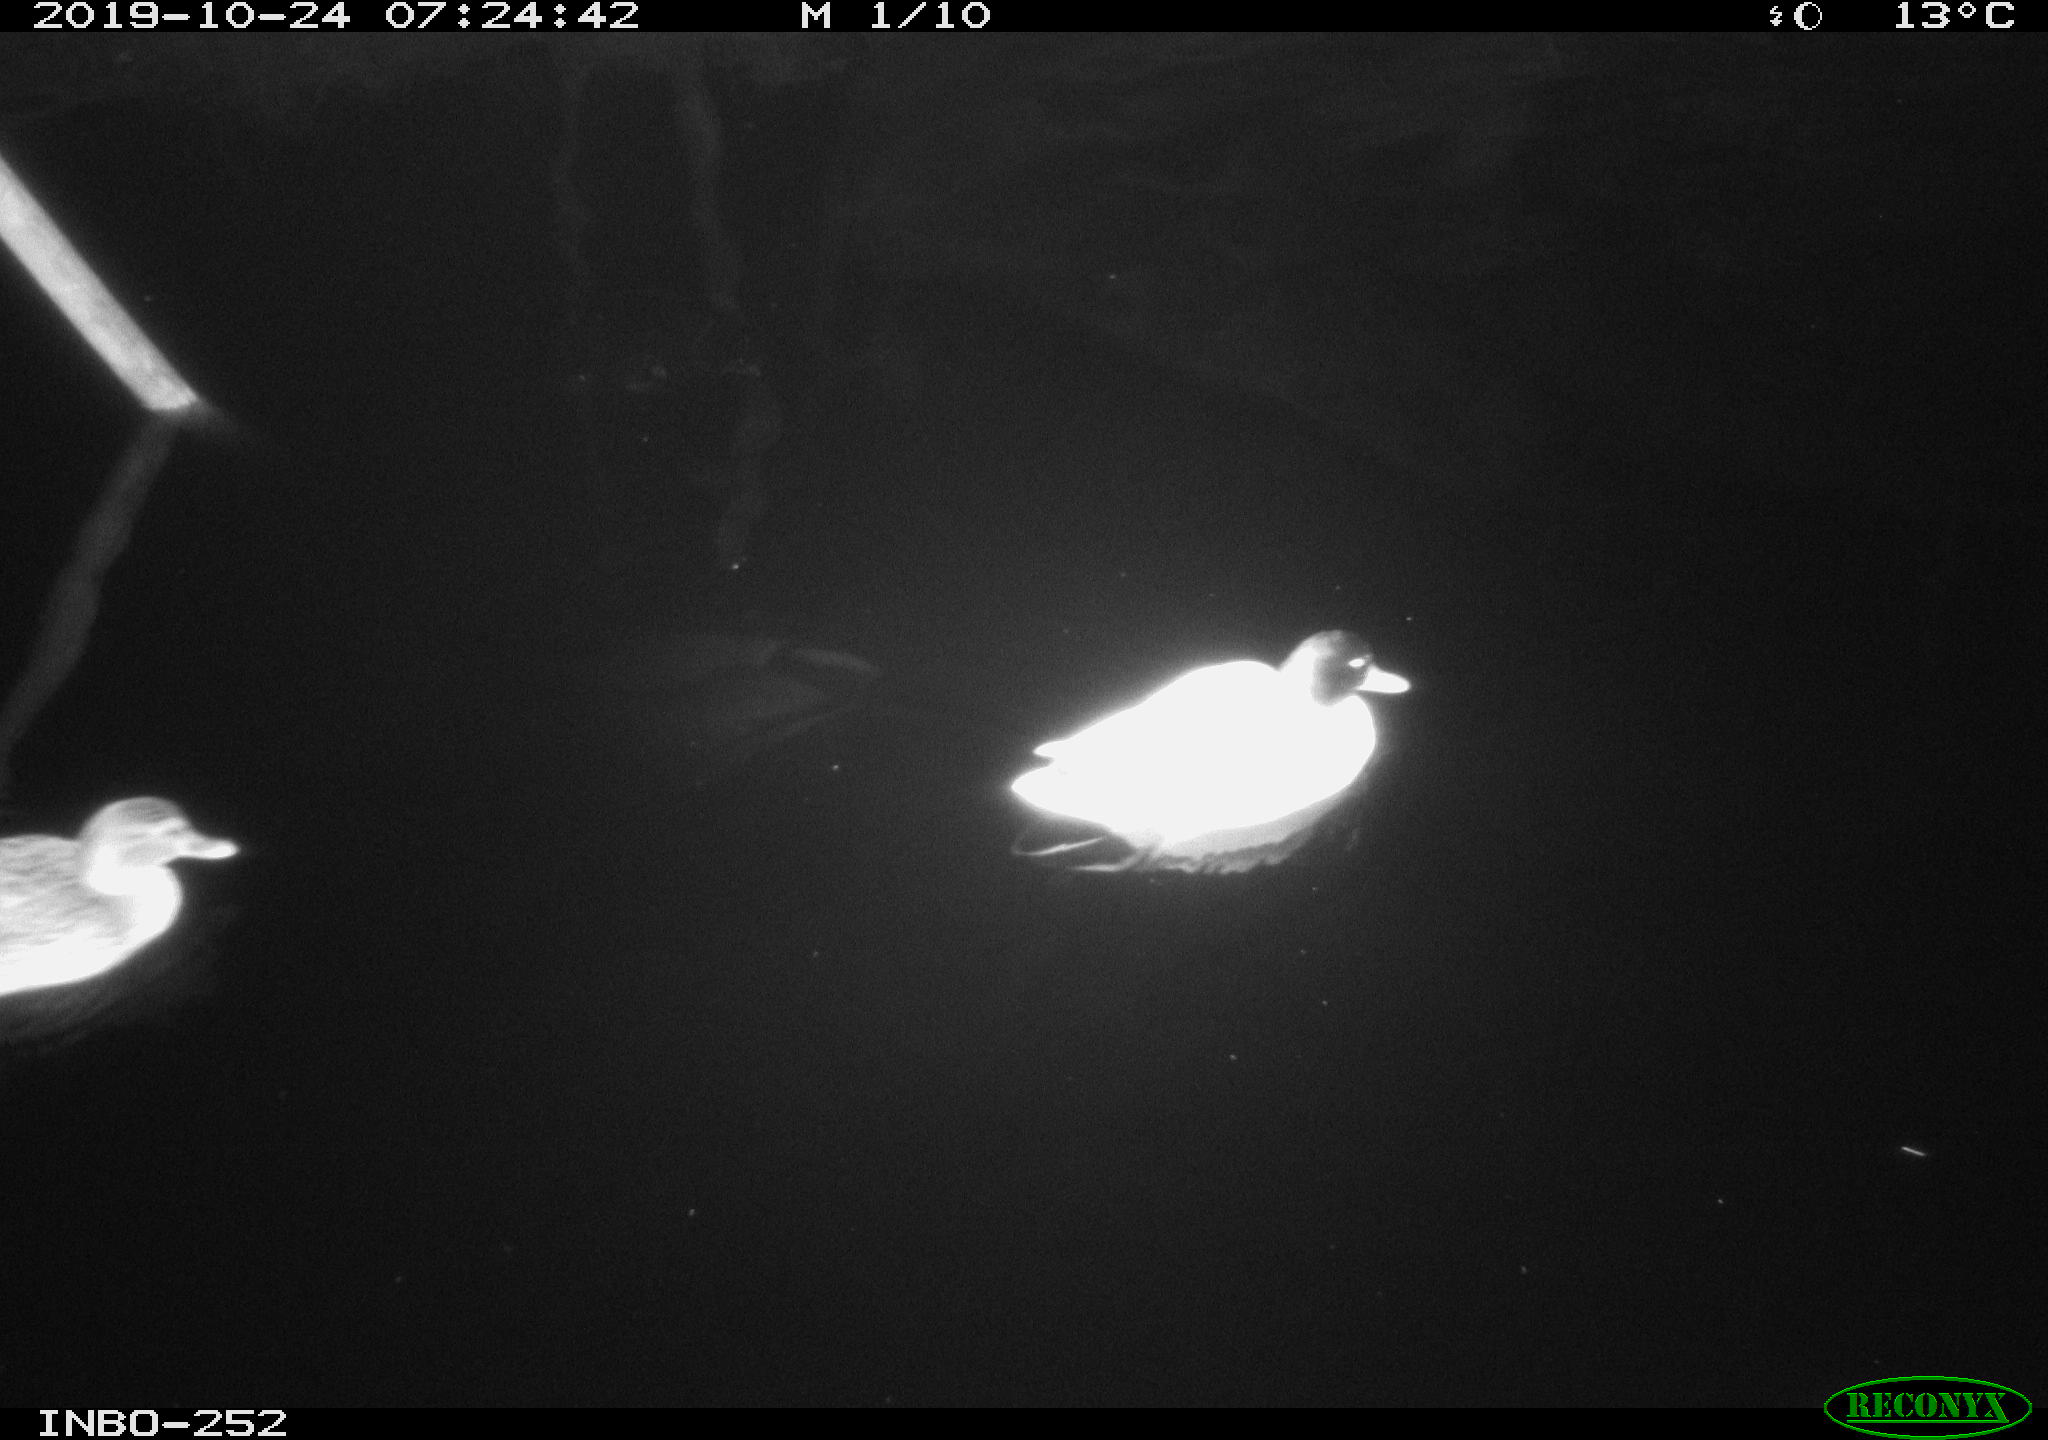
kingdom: Animalia
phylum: Chordata
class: Aves
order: Anseriformes
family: Anatidae
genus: Anas
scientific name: Anas platyrhynchos
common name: Mallard
